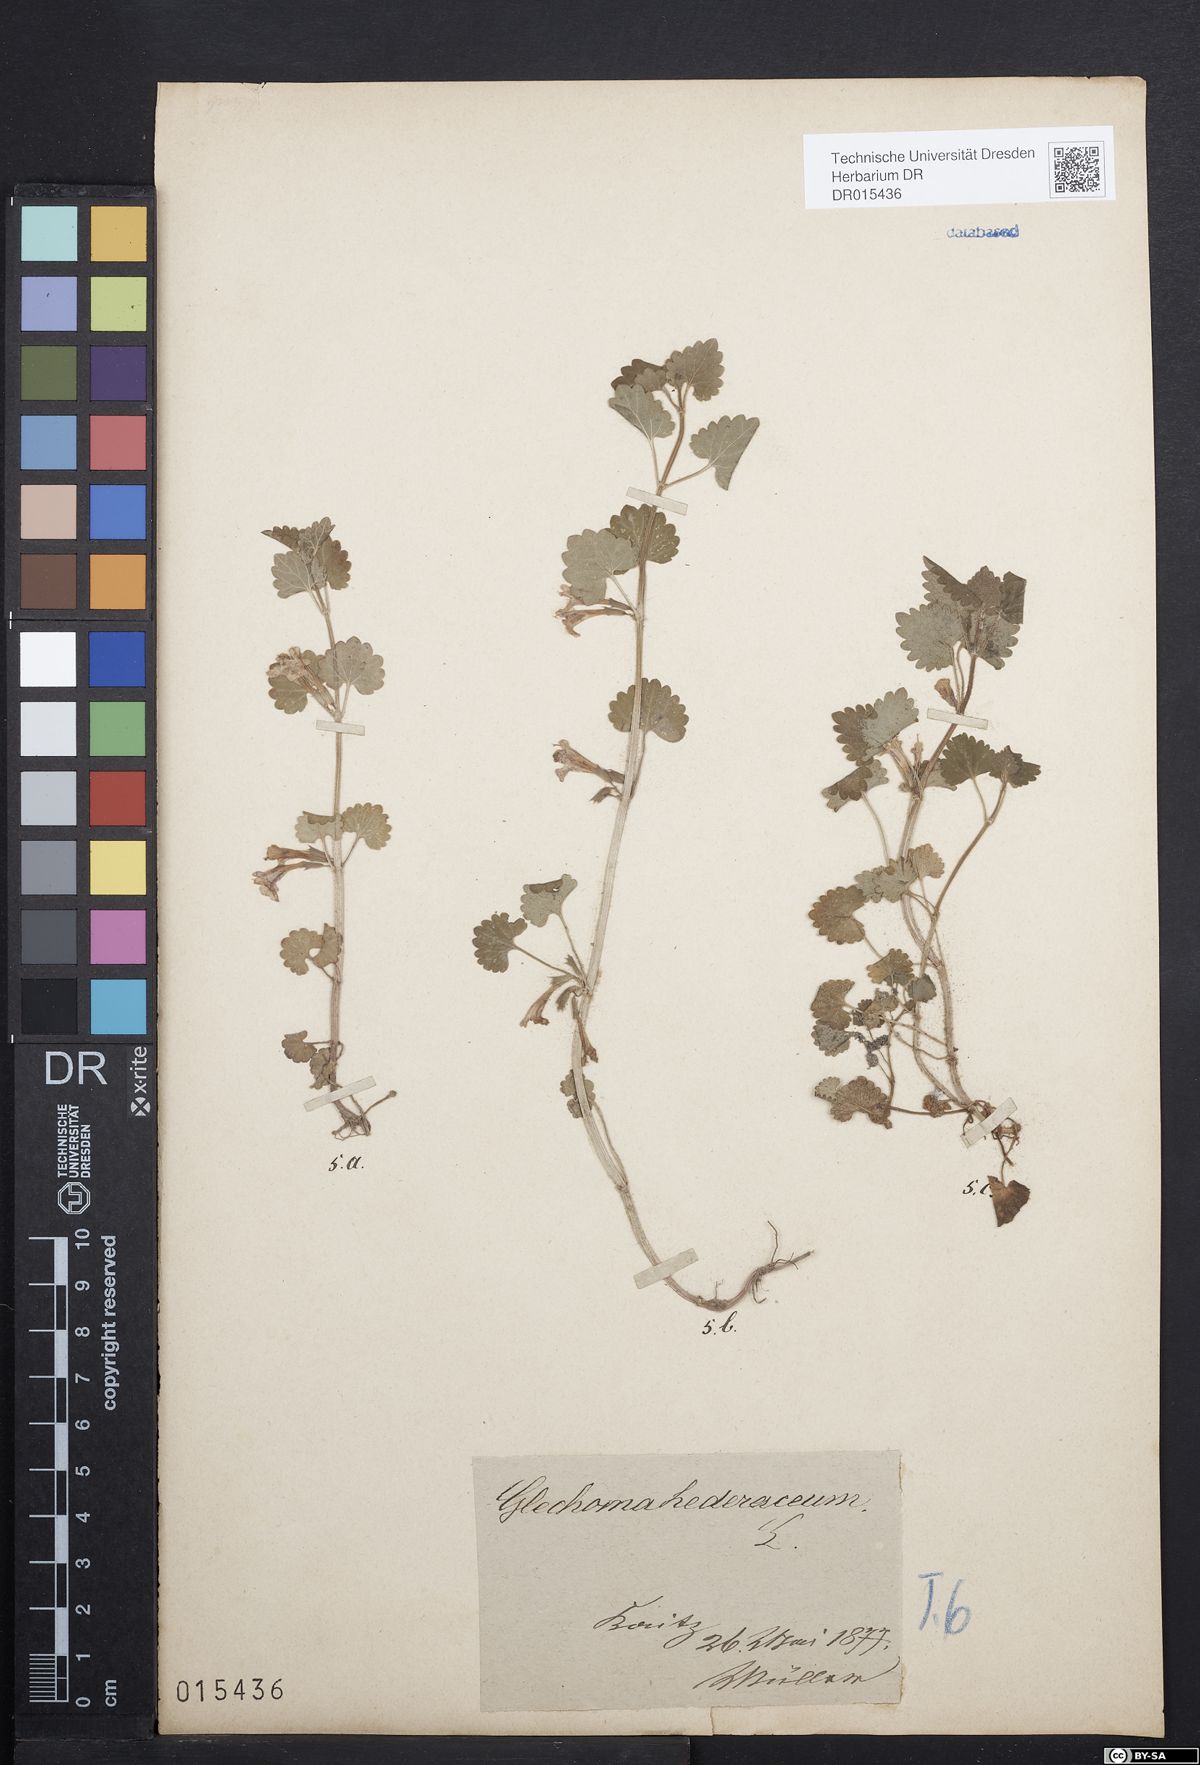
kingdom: Plantae
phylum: Tracheophyta
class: Magnoliopsida
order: Lamiales
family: Lamiaceae
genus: Glechoma
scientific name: Glechoma hederacea
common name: Ground ivy
